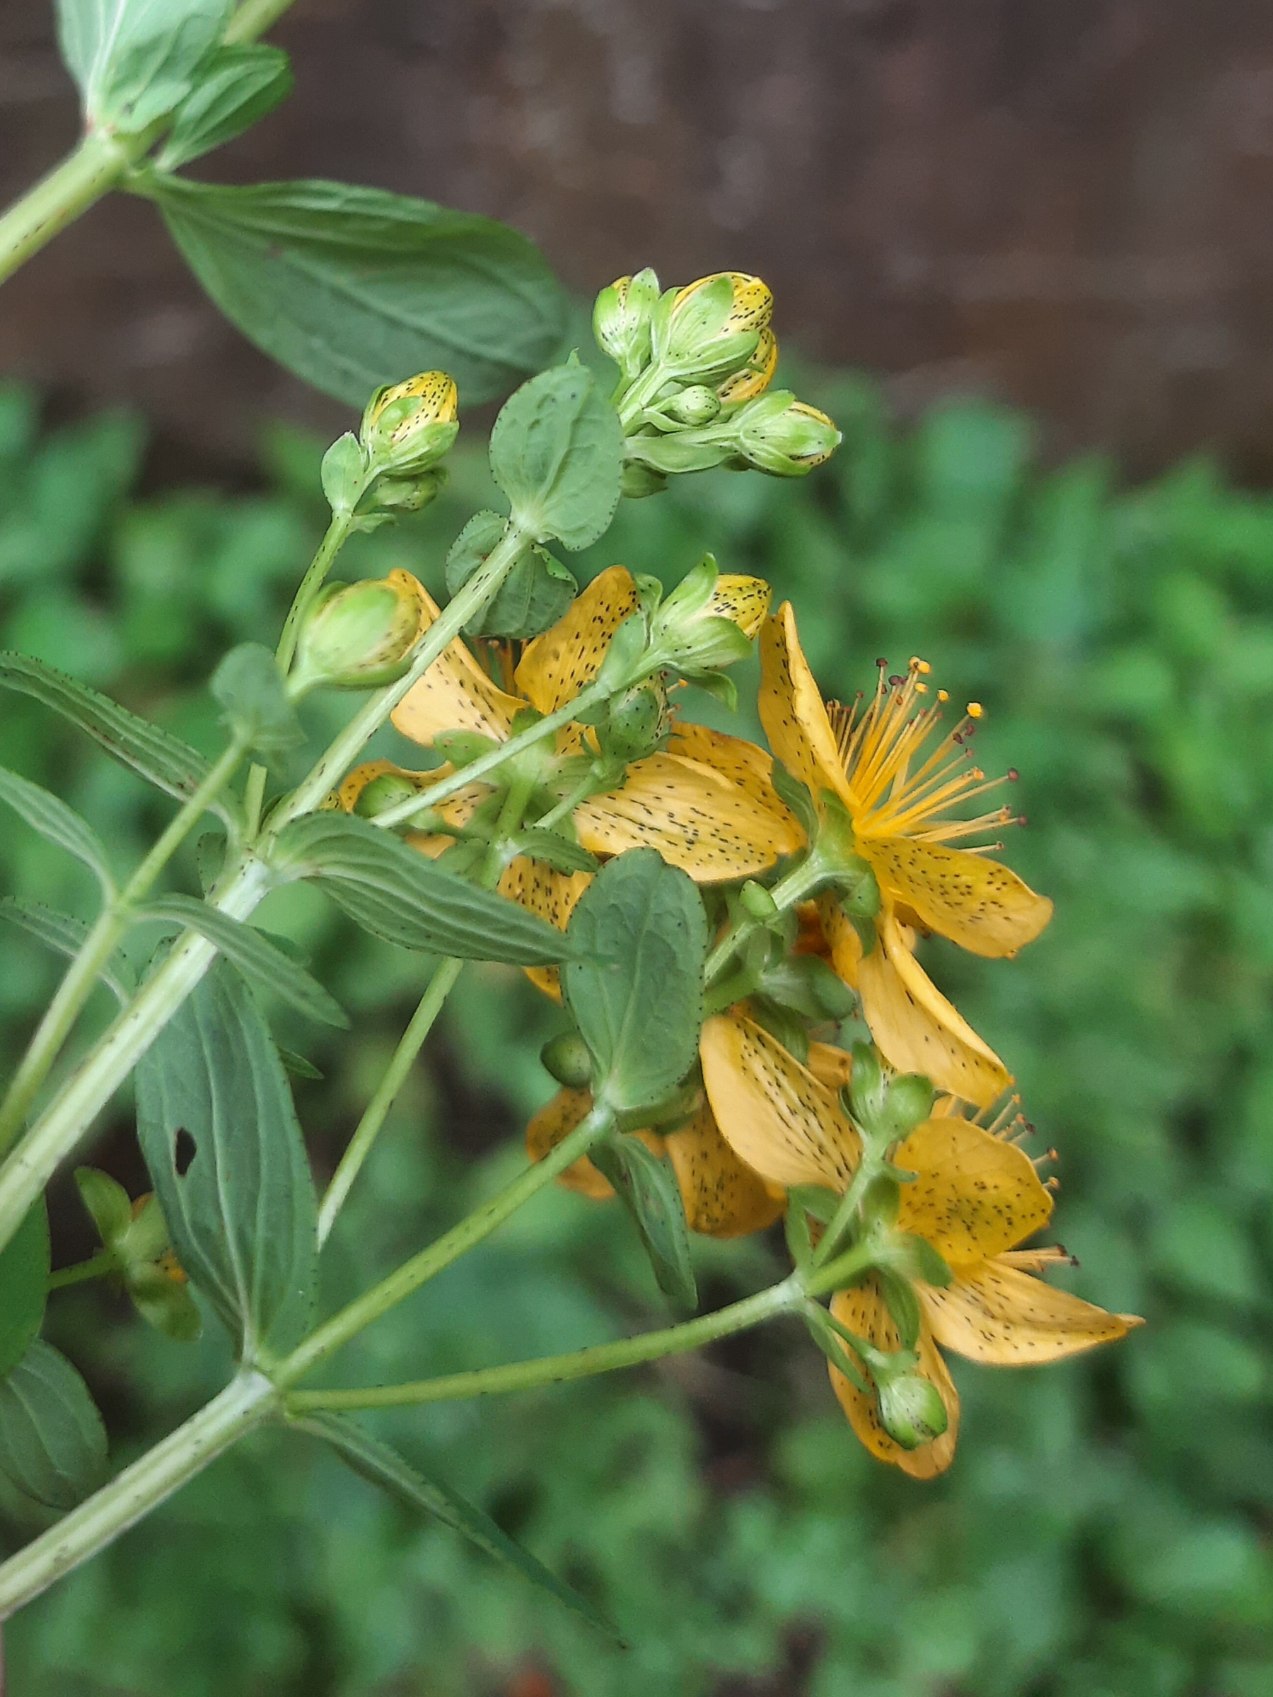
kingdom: Plantae
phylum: Tracheophyta
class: Magnoliopsida
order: Malpighiales
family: Hypericaceae
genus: Hypericum
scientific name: Hypericum maculatum
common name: Kantet perikon
